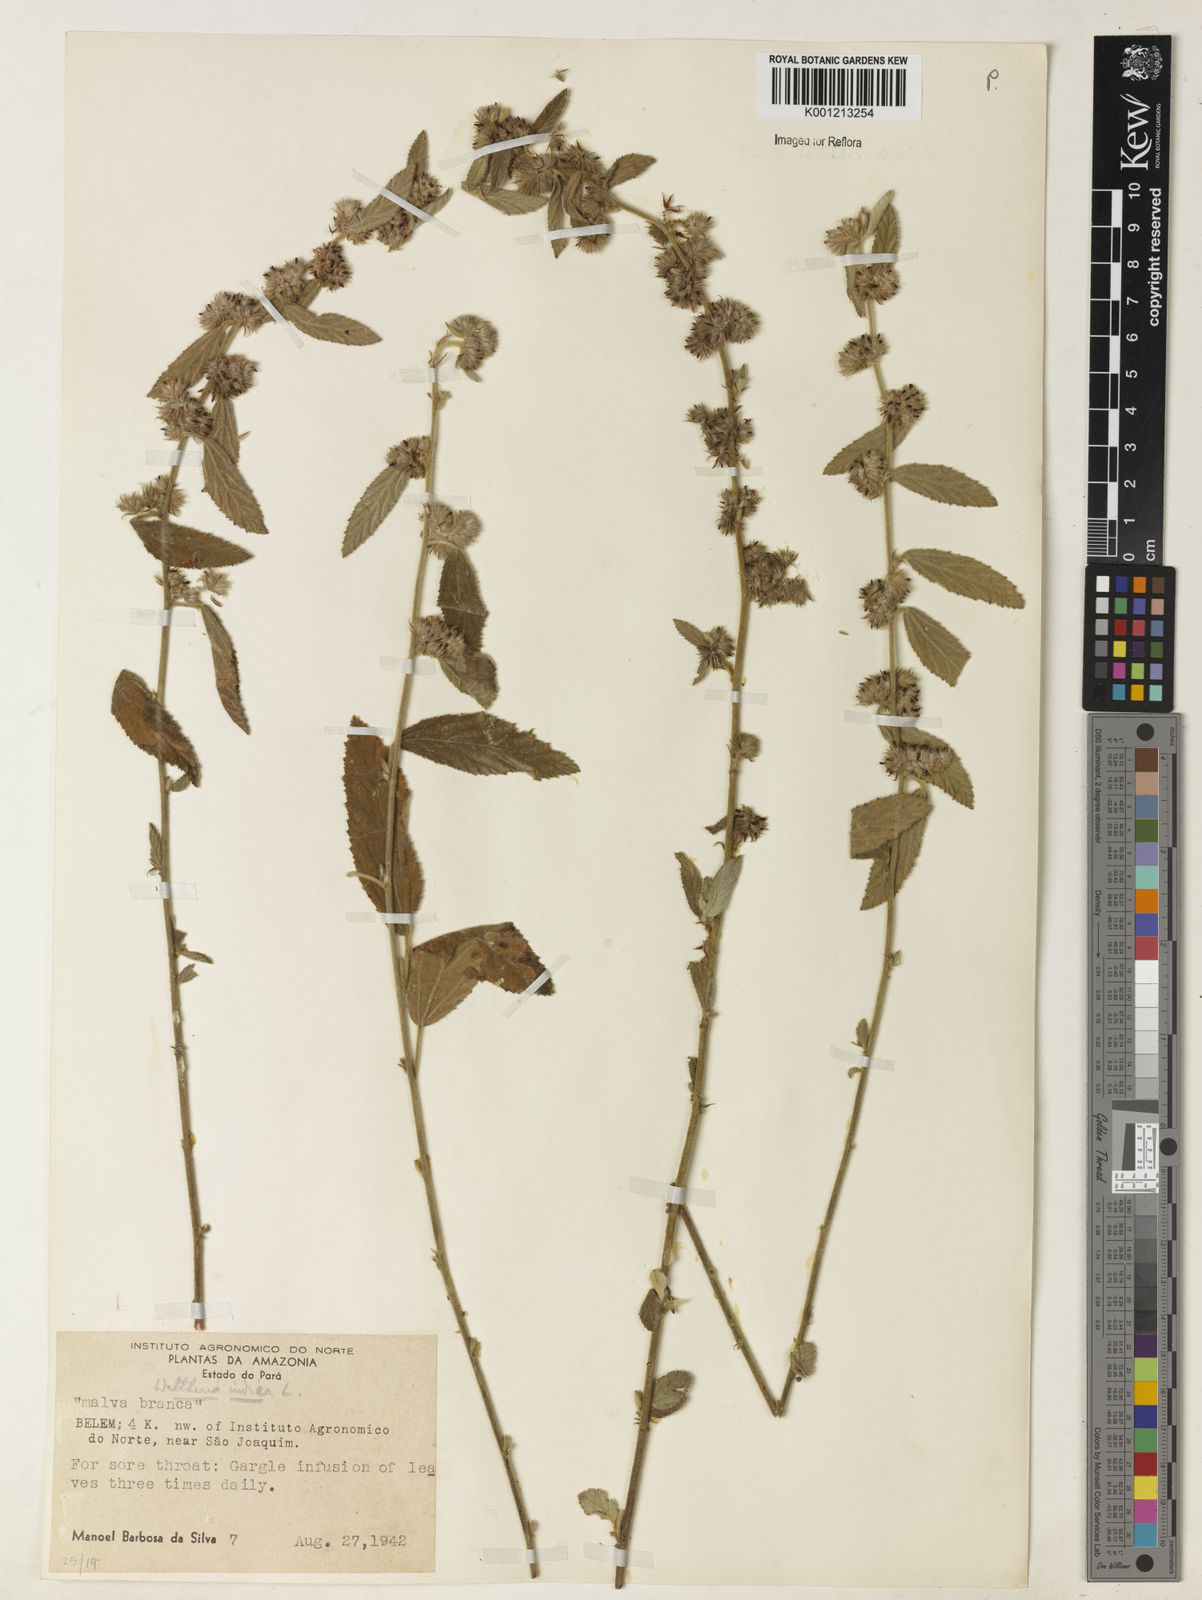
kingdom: Plantae
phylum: Tracheophyta
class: Magnoliopsida
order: Malvales
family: Malvaceae
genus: Waltheria
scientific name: Waltheria indica
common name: Leather-coat
